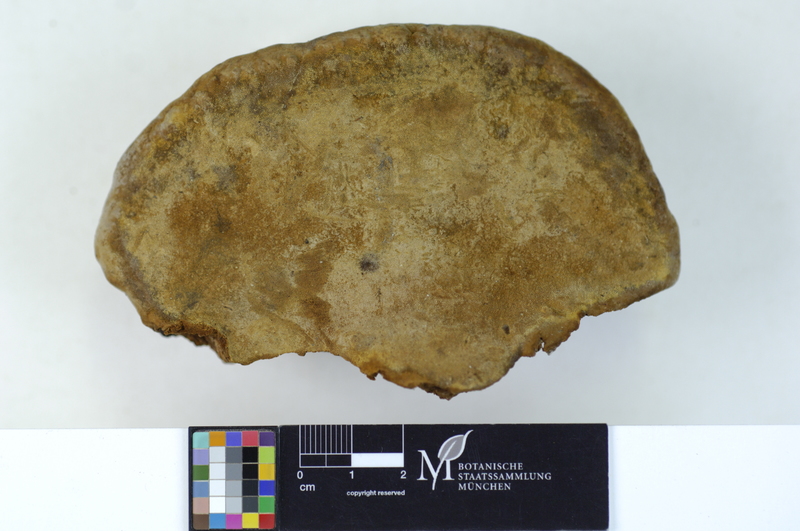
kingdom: Plantae
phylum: Tracheophyta
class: Magnoliopsida
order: Malpighiales
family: Salicaceae
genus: Salix
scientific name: Salix
